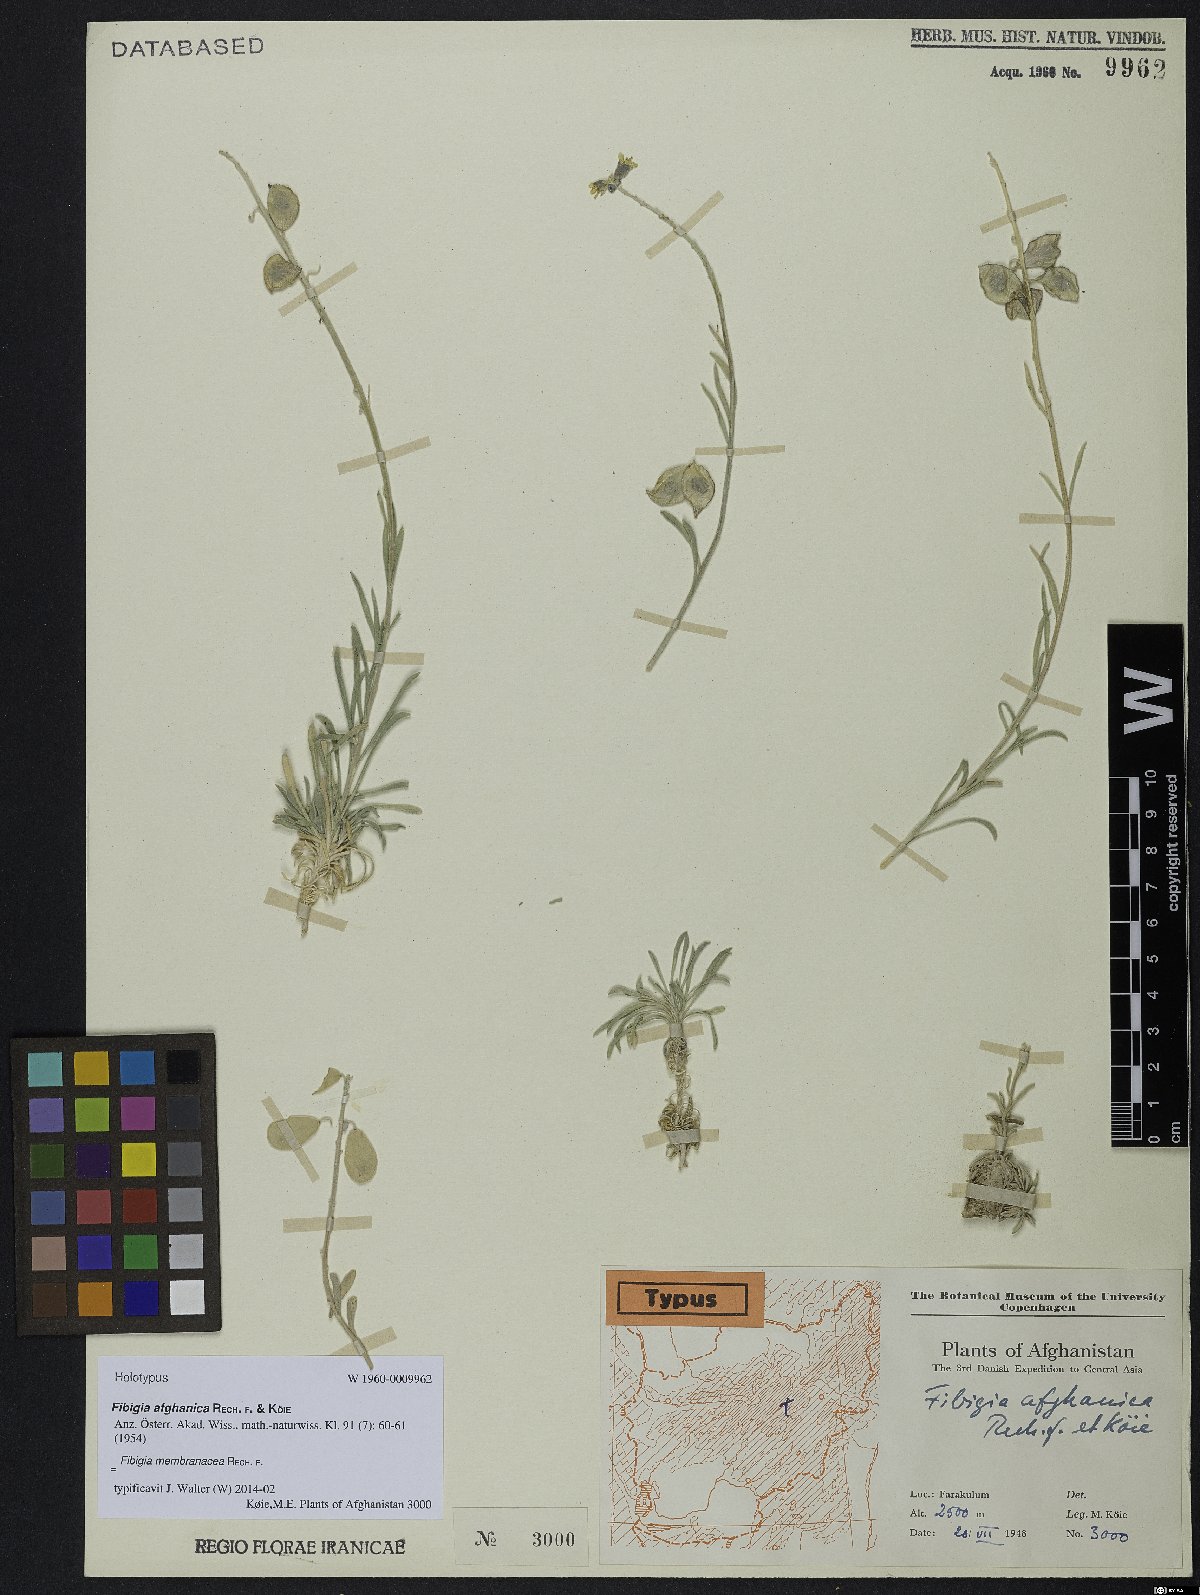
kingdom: Plantae
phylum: Tracheophyta
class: Magnoliopsida
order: Brassicales
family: Brassicaceae
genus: Irania
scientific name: Irania membranacea
